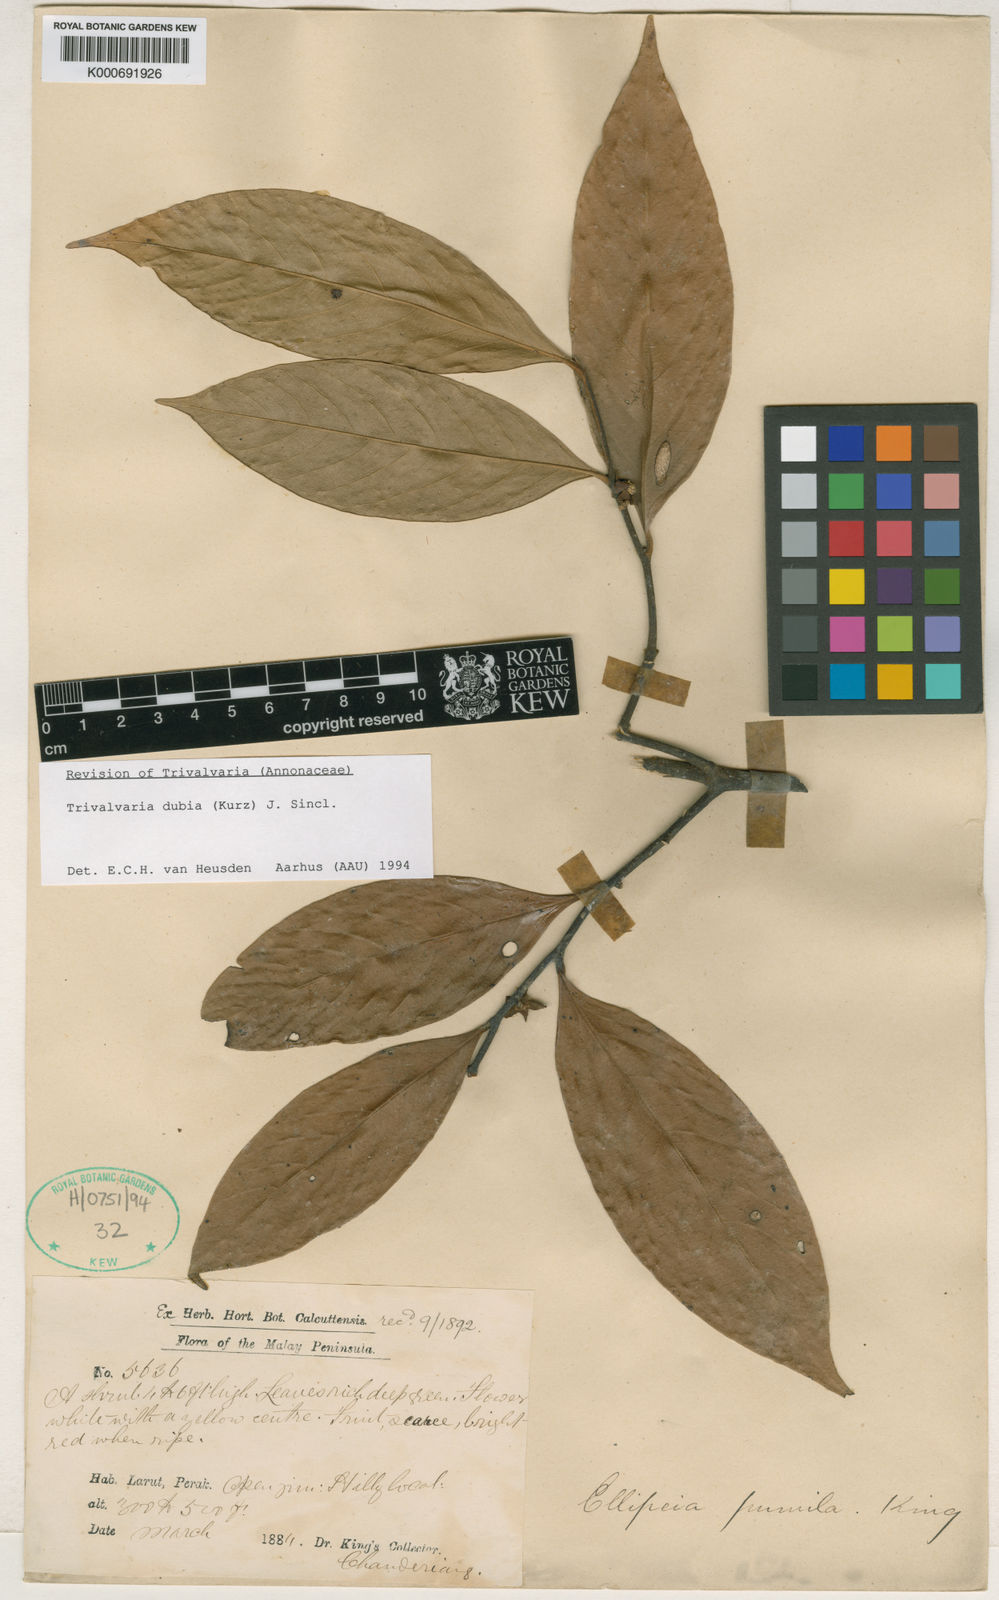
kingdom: Plantae
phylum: Tracheophyta
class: Magnoliopsida
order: Magnoliales
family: Annonaceae
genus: Trivalvaria
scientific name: Trivalvaria costata
